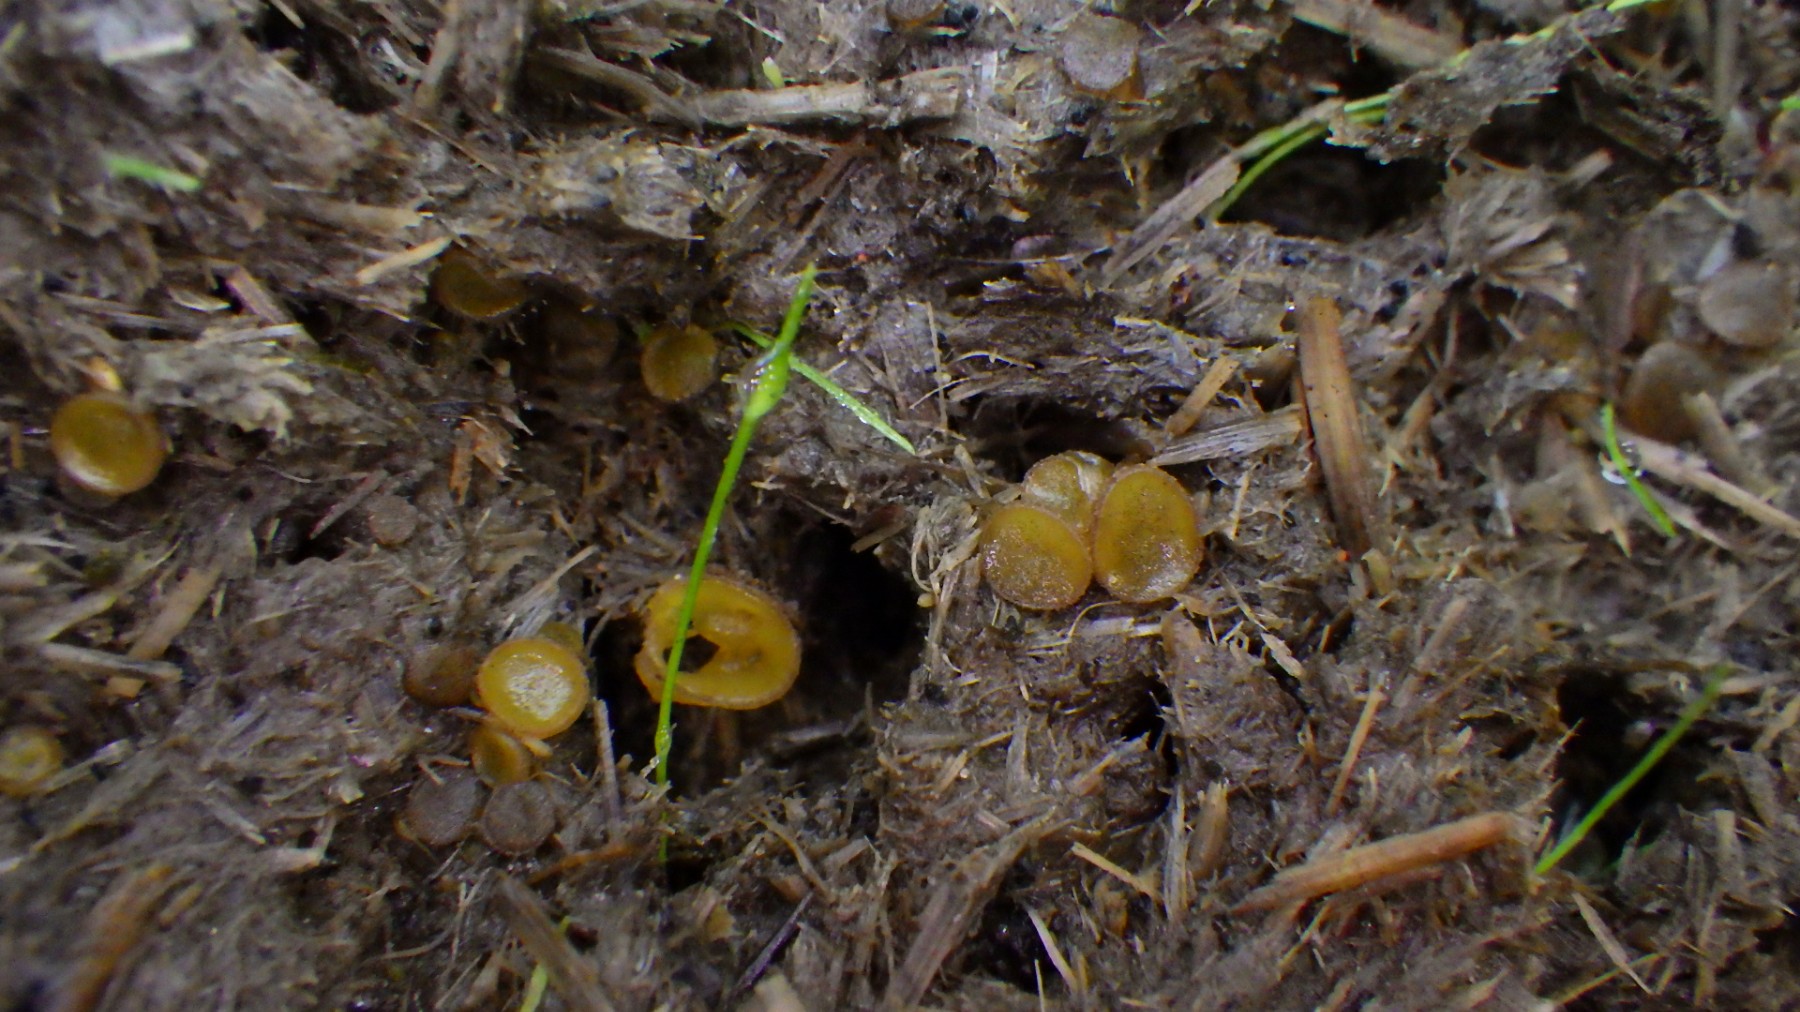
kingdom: Fungi
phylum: Ascomycota
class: Pezizomycetes
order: Pezizales
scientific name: Pezizales
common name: bægersvampordenen
